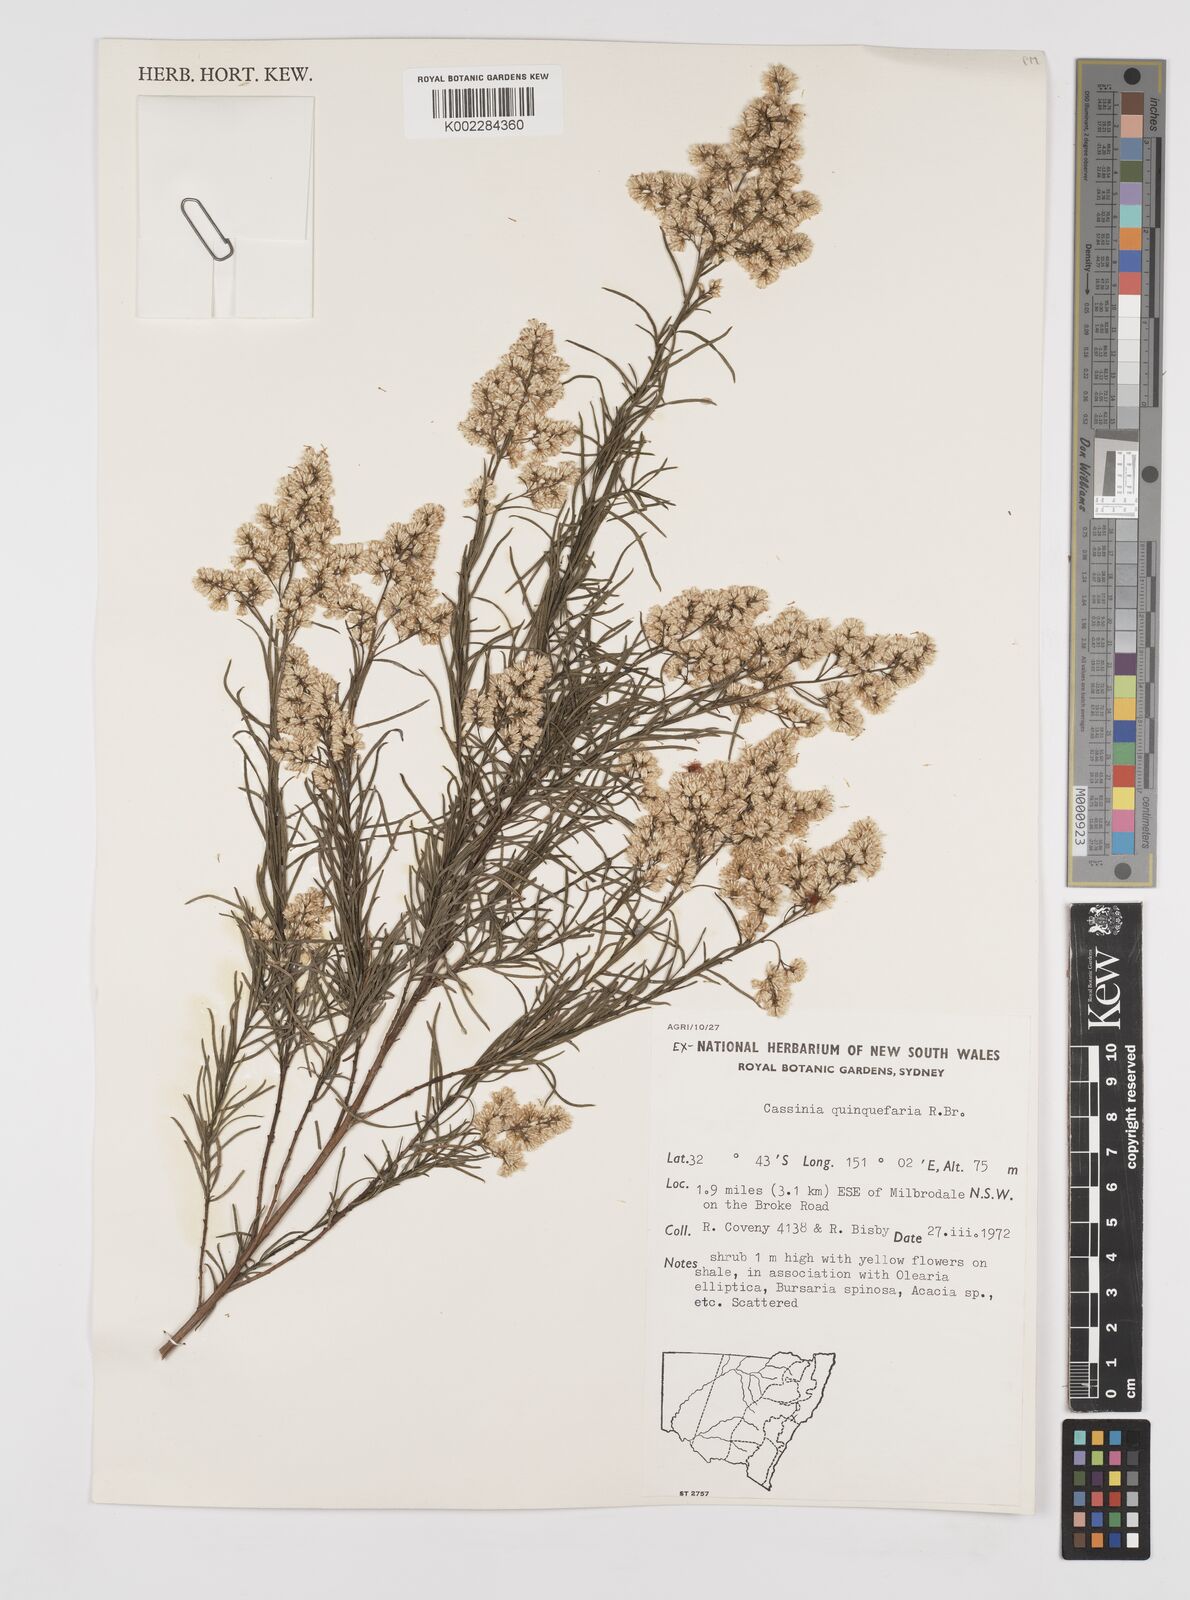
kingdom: Plantae
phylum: Tracheophyta
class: Magnoliopsida
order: Asterales
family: Asteraceae
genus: Cassinia
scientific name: Cassinia quinquefaria
